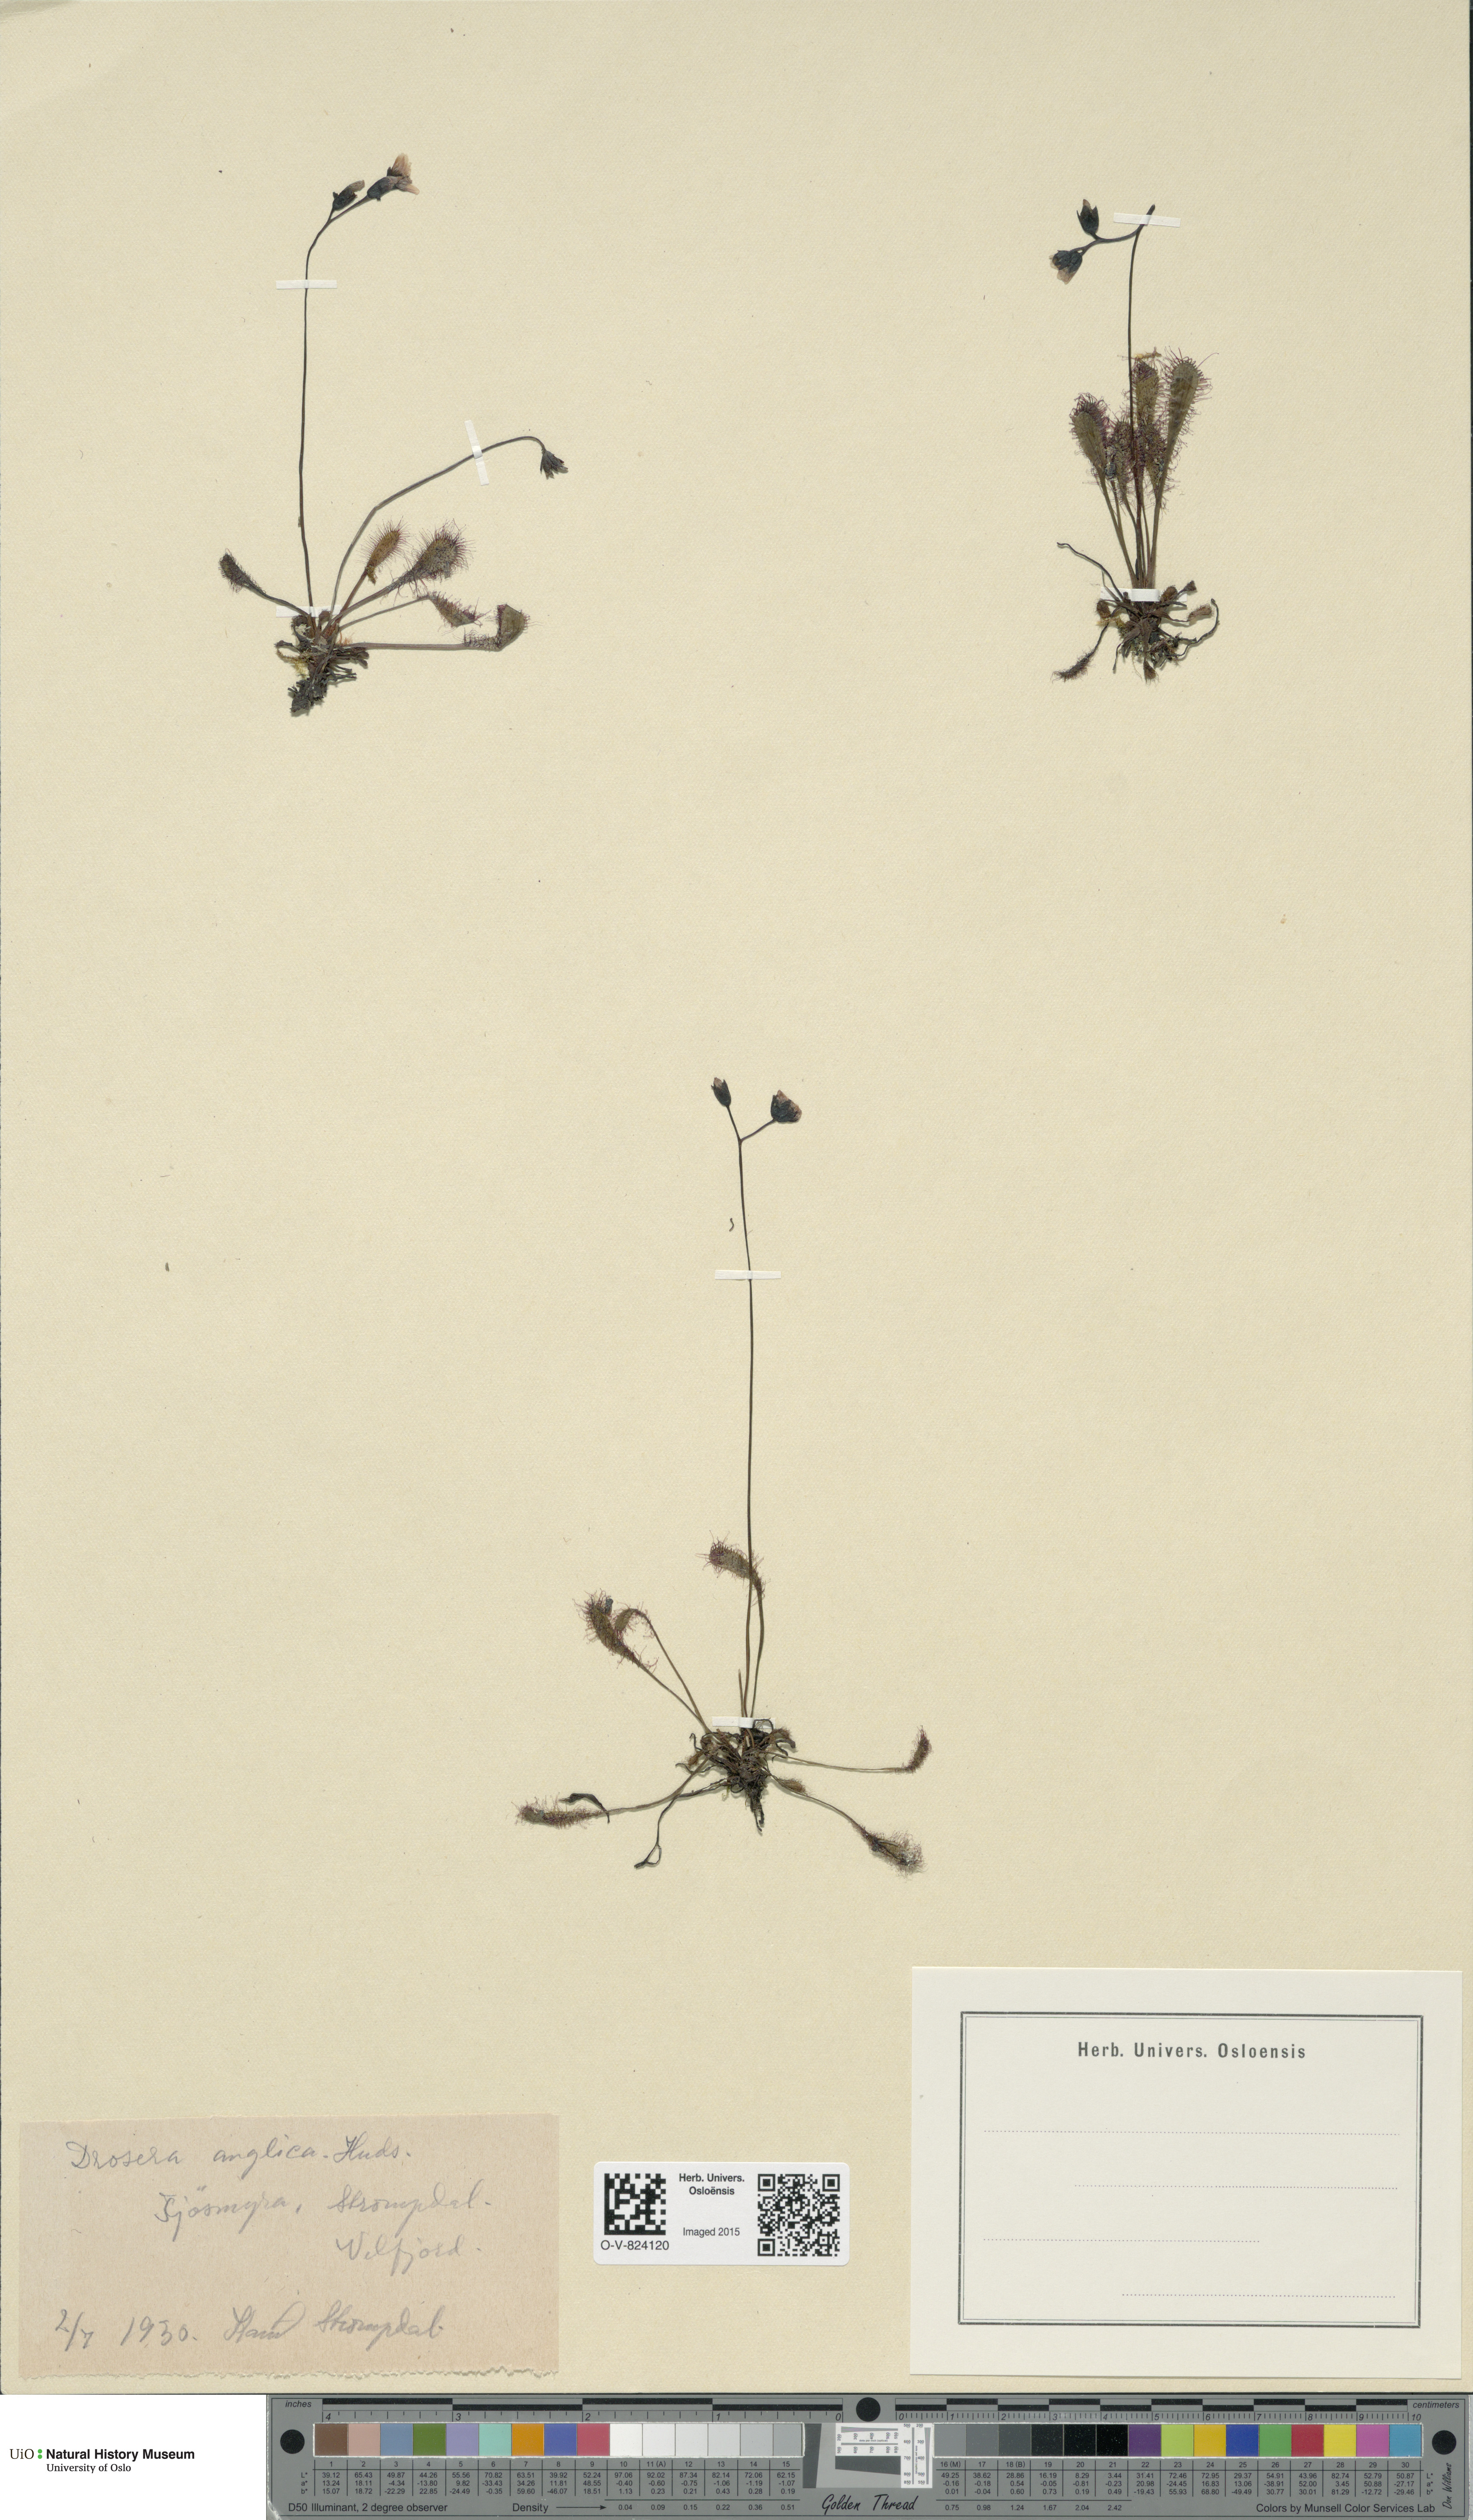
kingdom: Plantae
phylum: Tracheophyta
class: Magnoliopsida
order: Caryophyllales
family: Droseraceae
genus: Drosera
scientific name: Drosera anglica
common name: Great sundew
